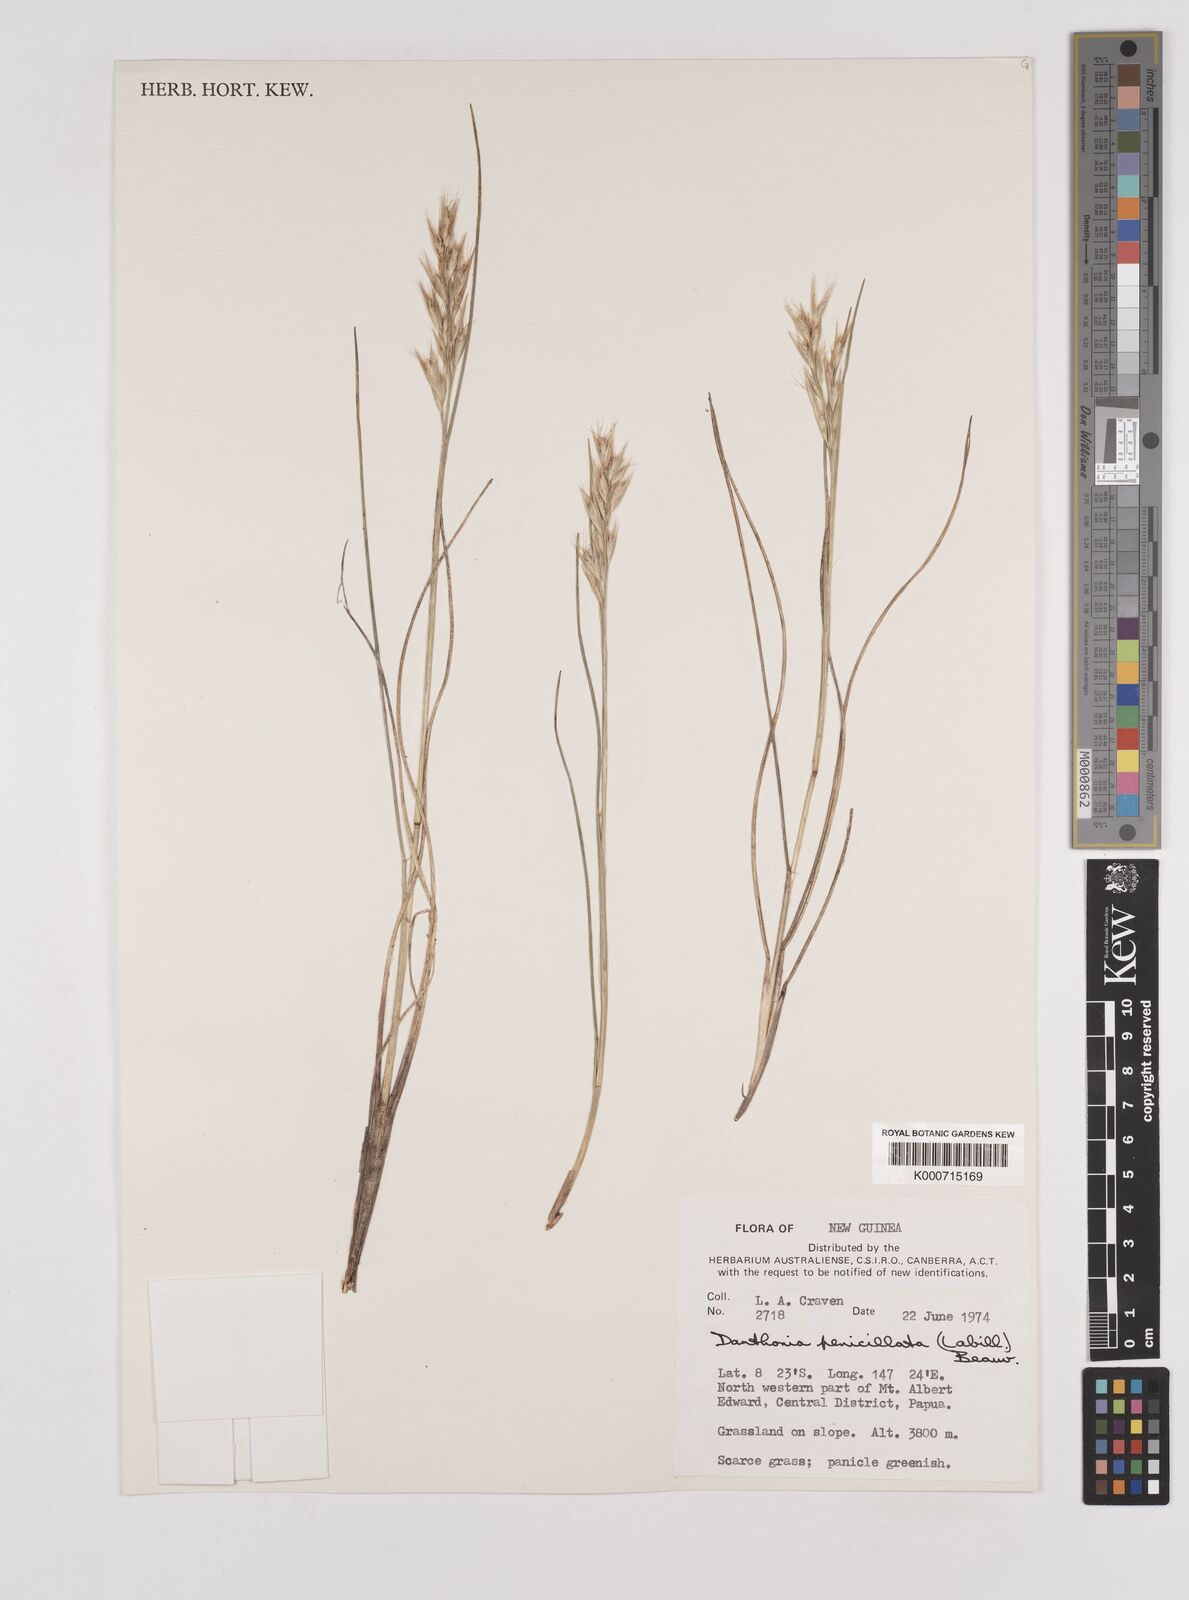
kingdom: Plantae
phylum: Tracheophyta
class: Liliopsida
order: Poales
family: Poaceae
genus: Rytidosperma
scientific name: Rytidosperma penicillatum
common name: Hairy wallaby grass
